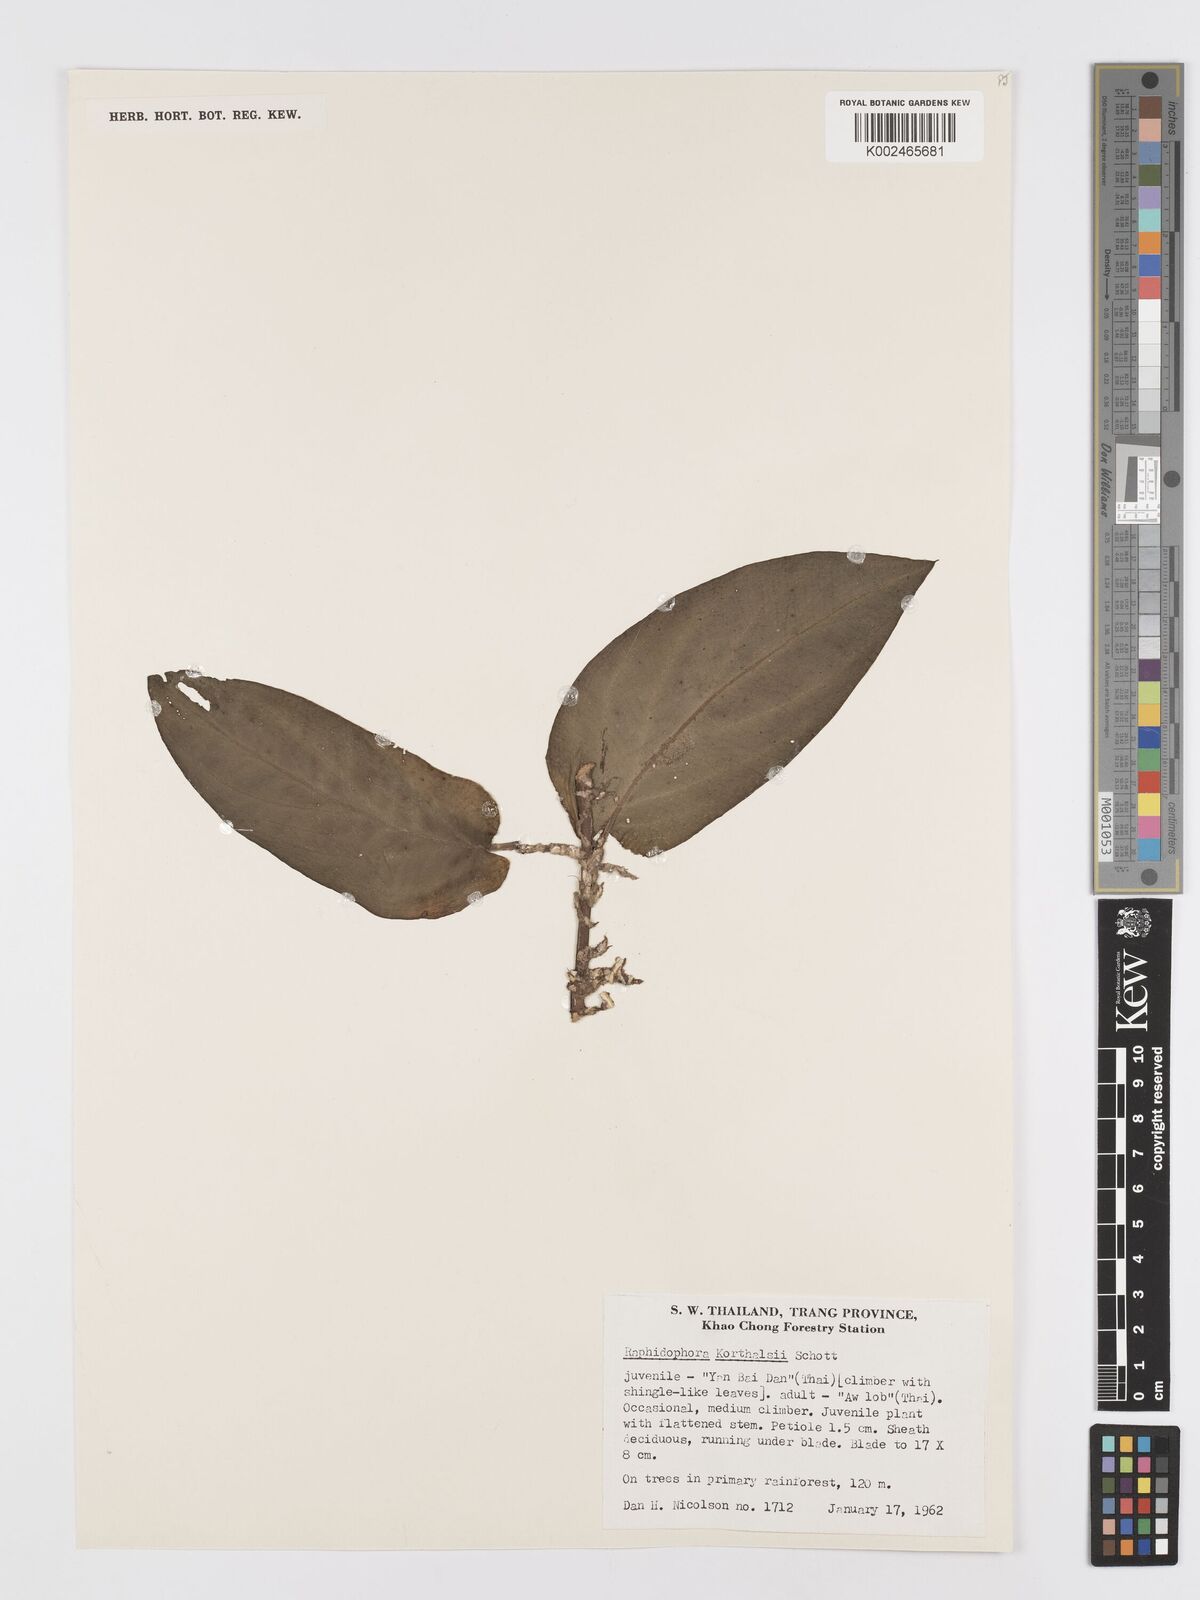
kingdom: Plantae
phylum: Tracheophyta
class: Liliopsida
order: Alismatales
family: Araceae
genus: Rhaphidophora
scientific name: Rhaphidophora korthalsii
